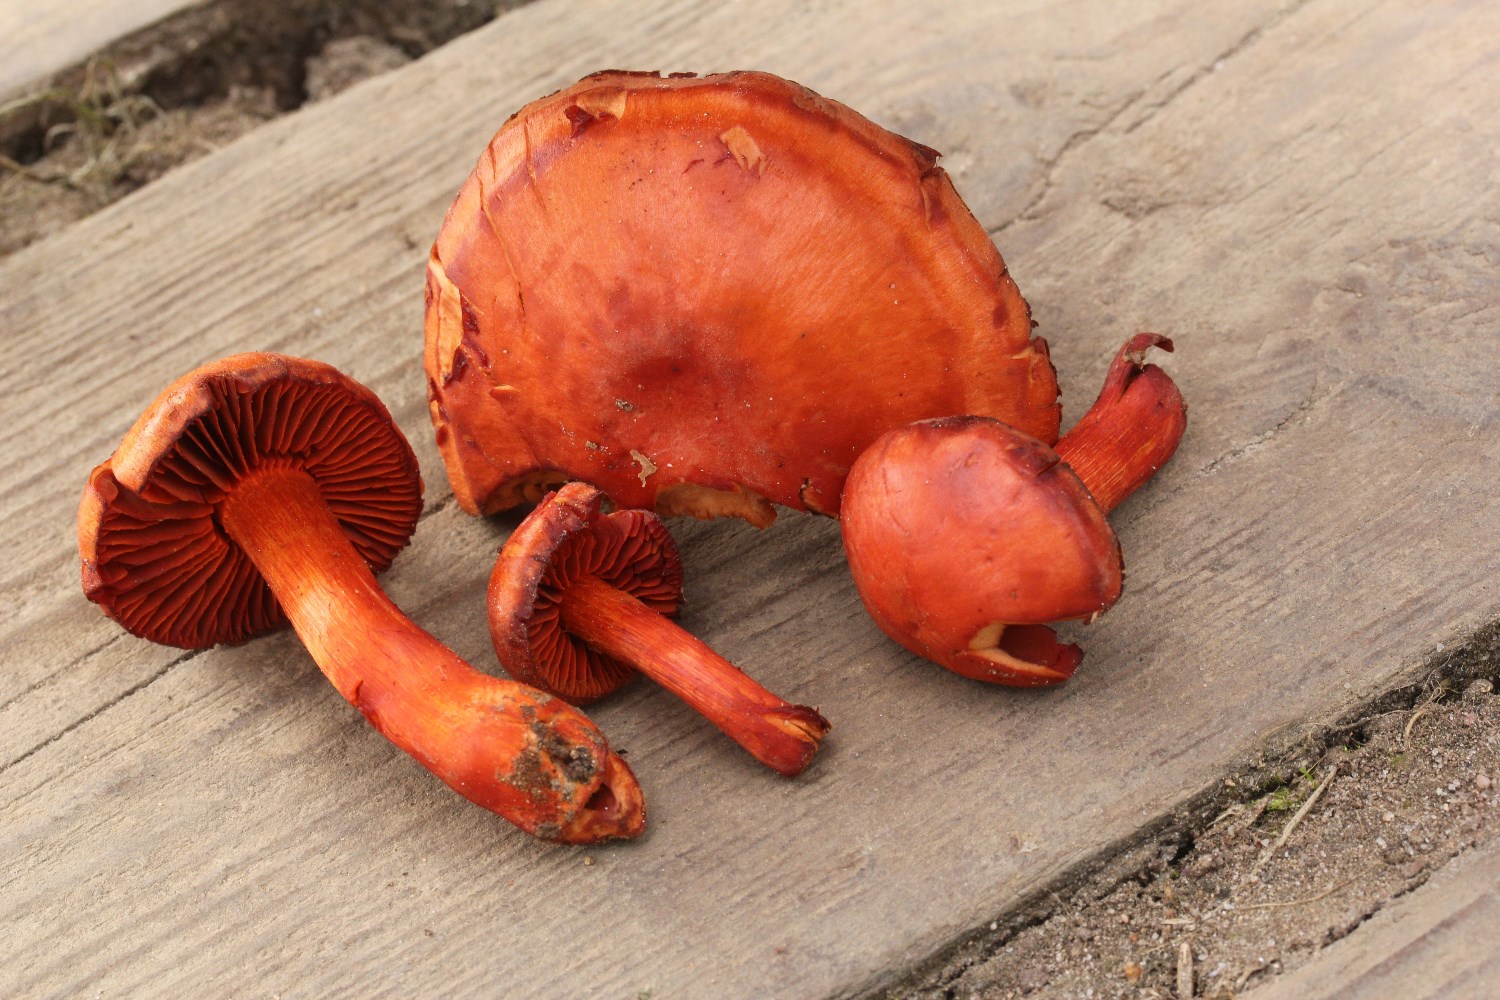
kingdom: Fungi
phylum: Basidiomycota
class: Agaricomycetes
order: Agaricales
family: Cortinariaceae
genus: Cortinarius
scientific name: Cortinarius cinnabarinus
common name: cinnober-slørhat
